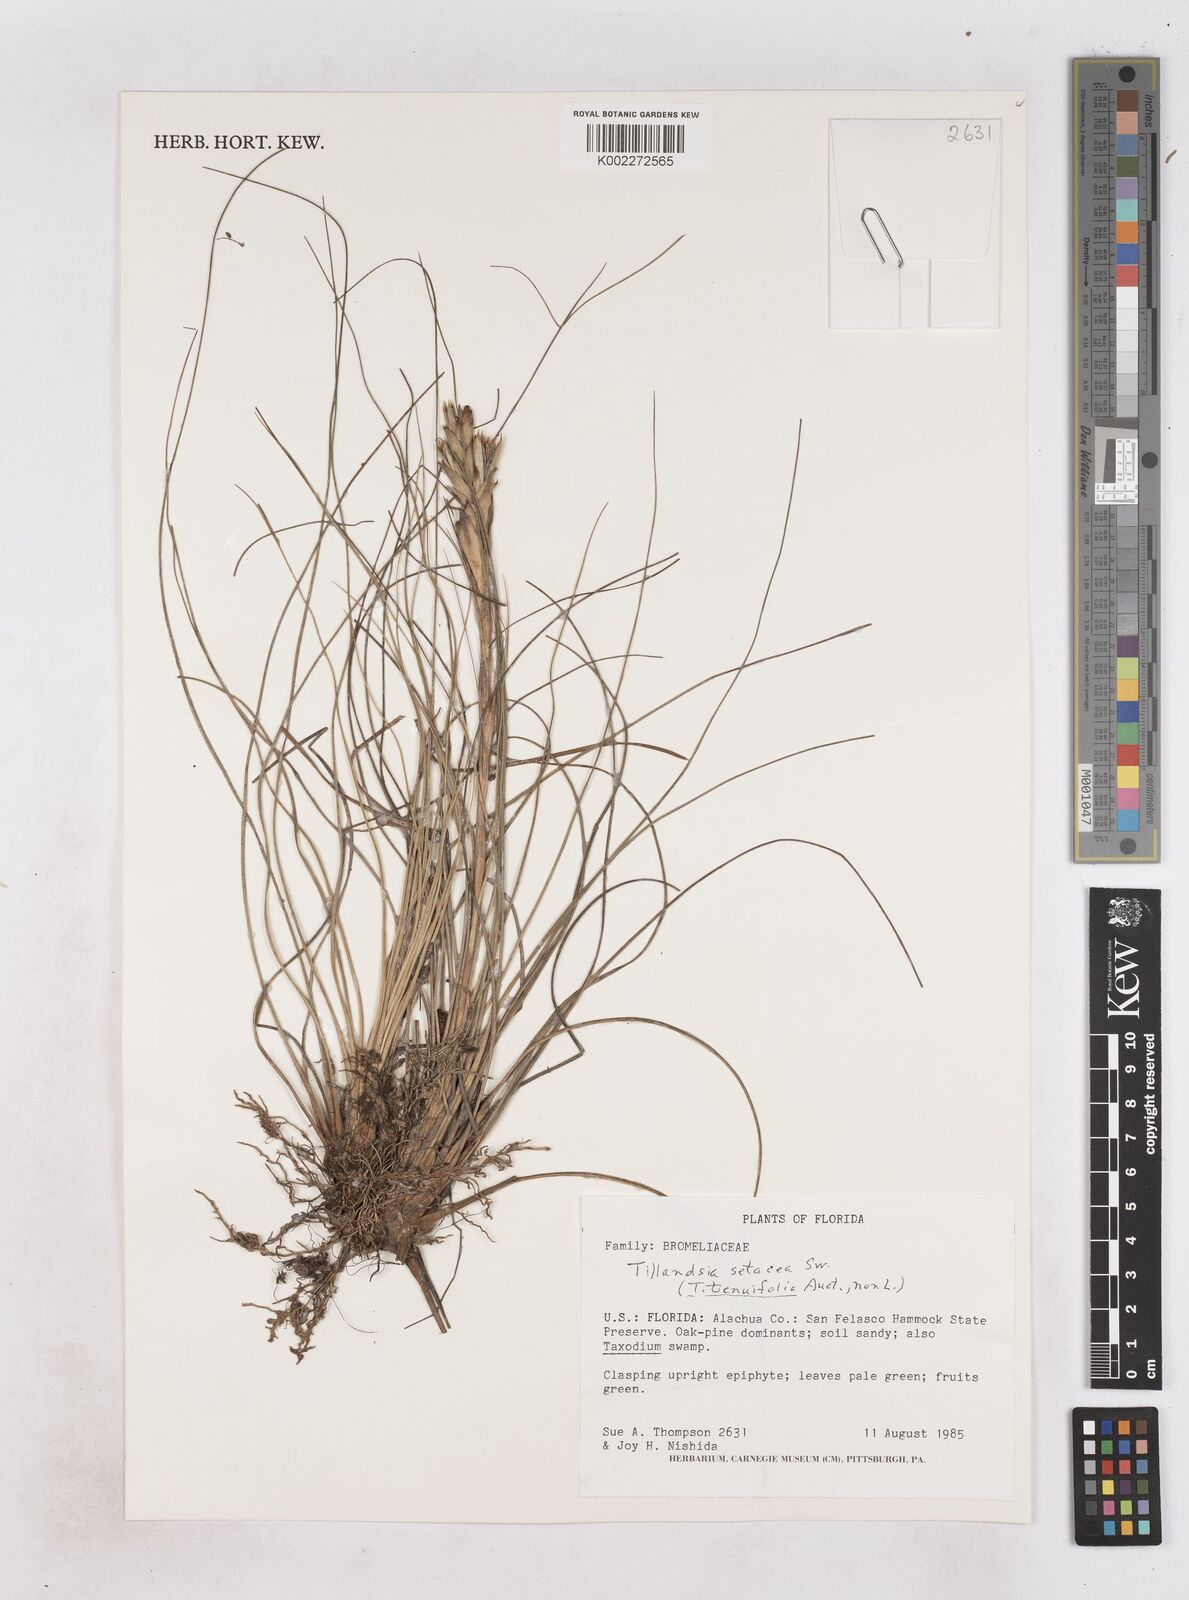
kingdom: Plantae
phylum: Tracheophyta
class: Liliopsida
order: Poales
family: Bromeliaceae
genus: Tillandsia
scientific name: Tillandsia
